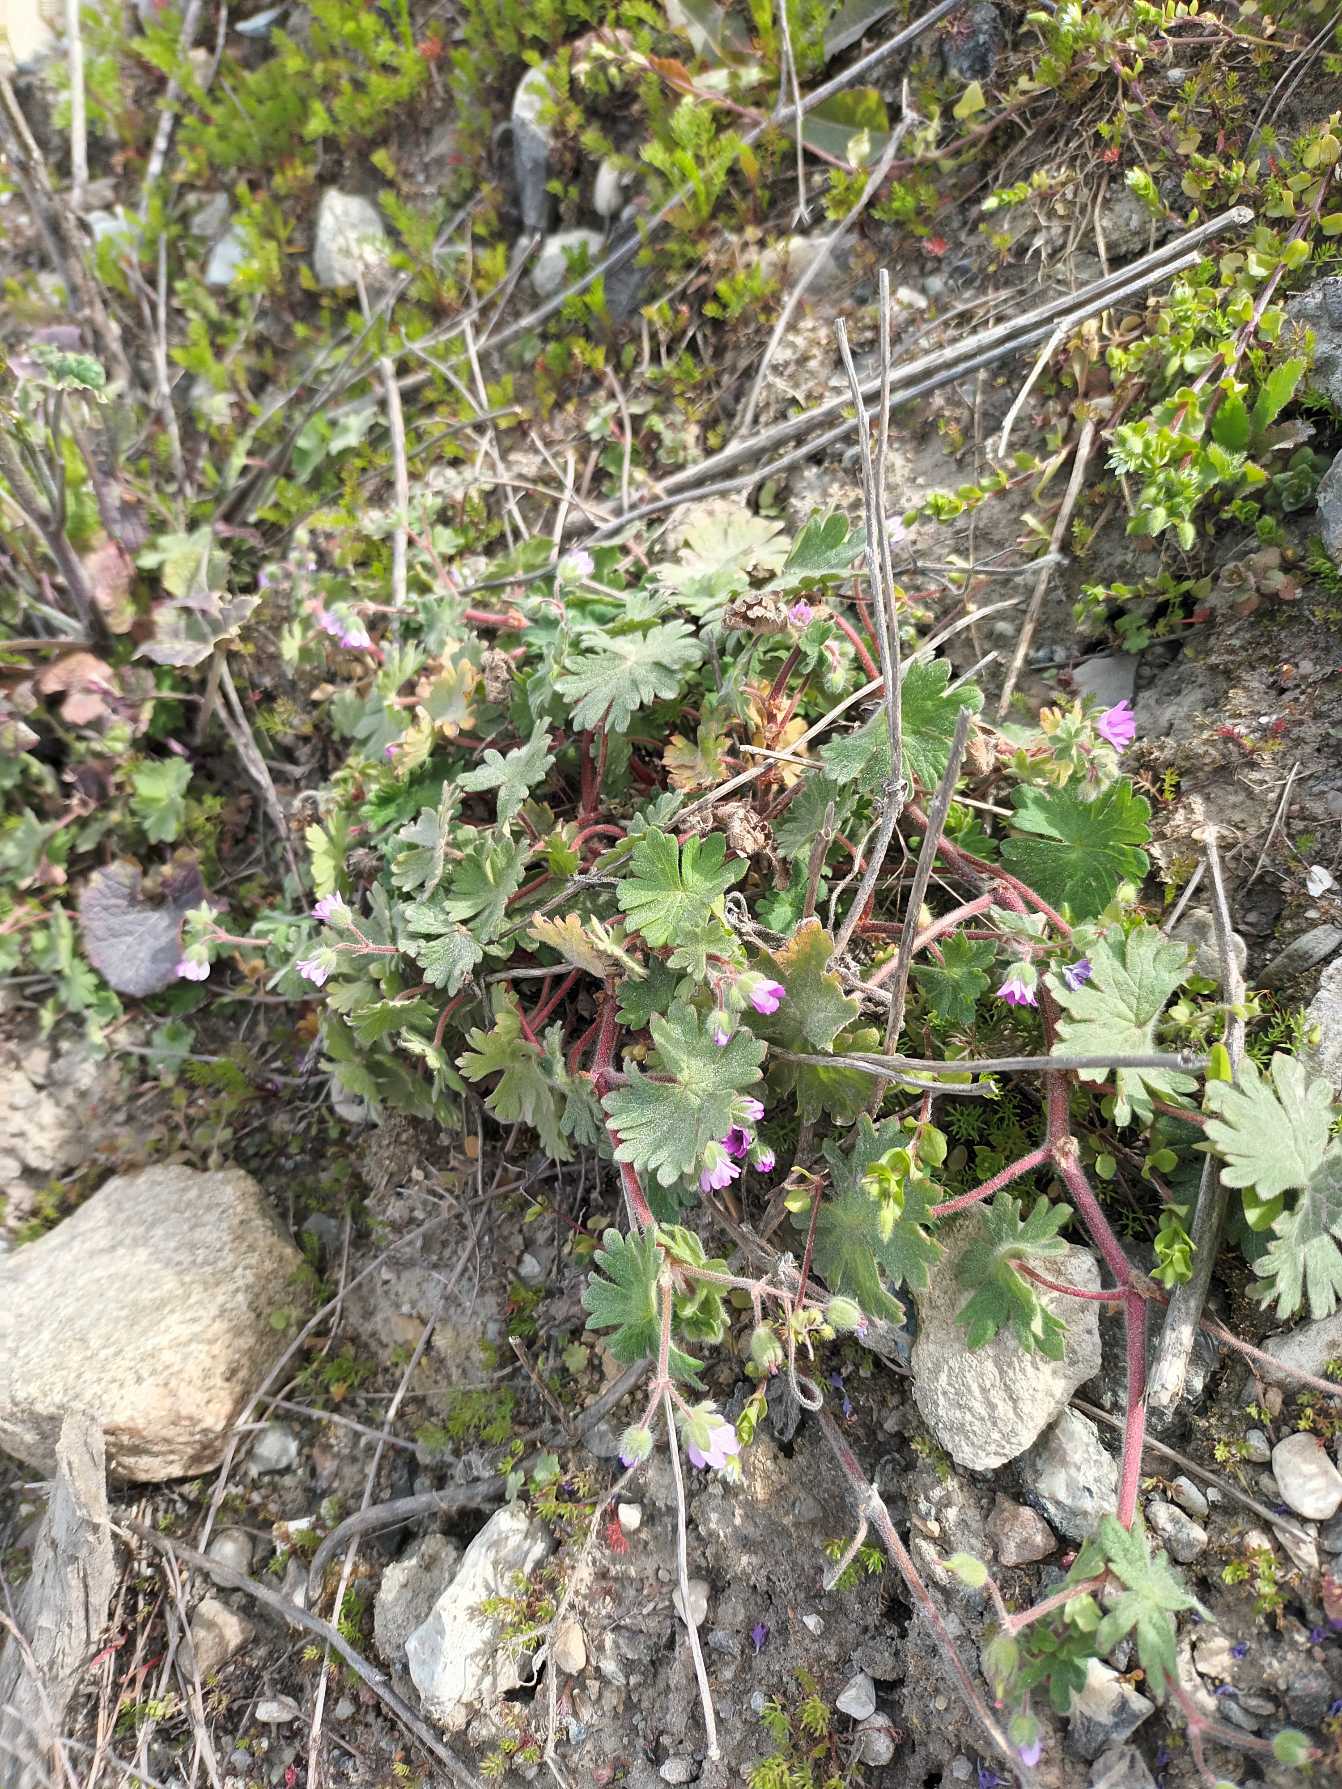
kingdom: Plantae
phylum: Tracheophyta
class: Magnoliopsida
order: Geraniales
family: Geraniaceae
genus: Geranium
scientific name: Geranium molle
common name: Blød storkenæb
